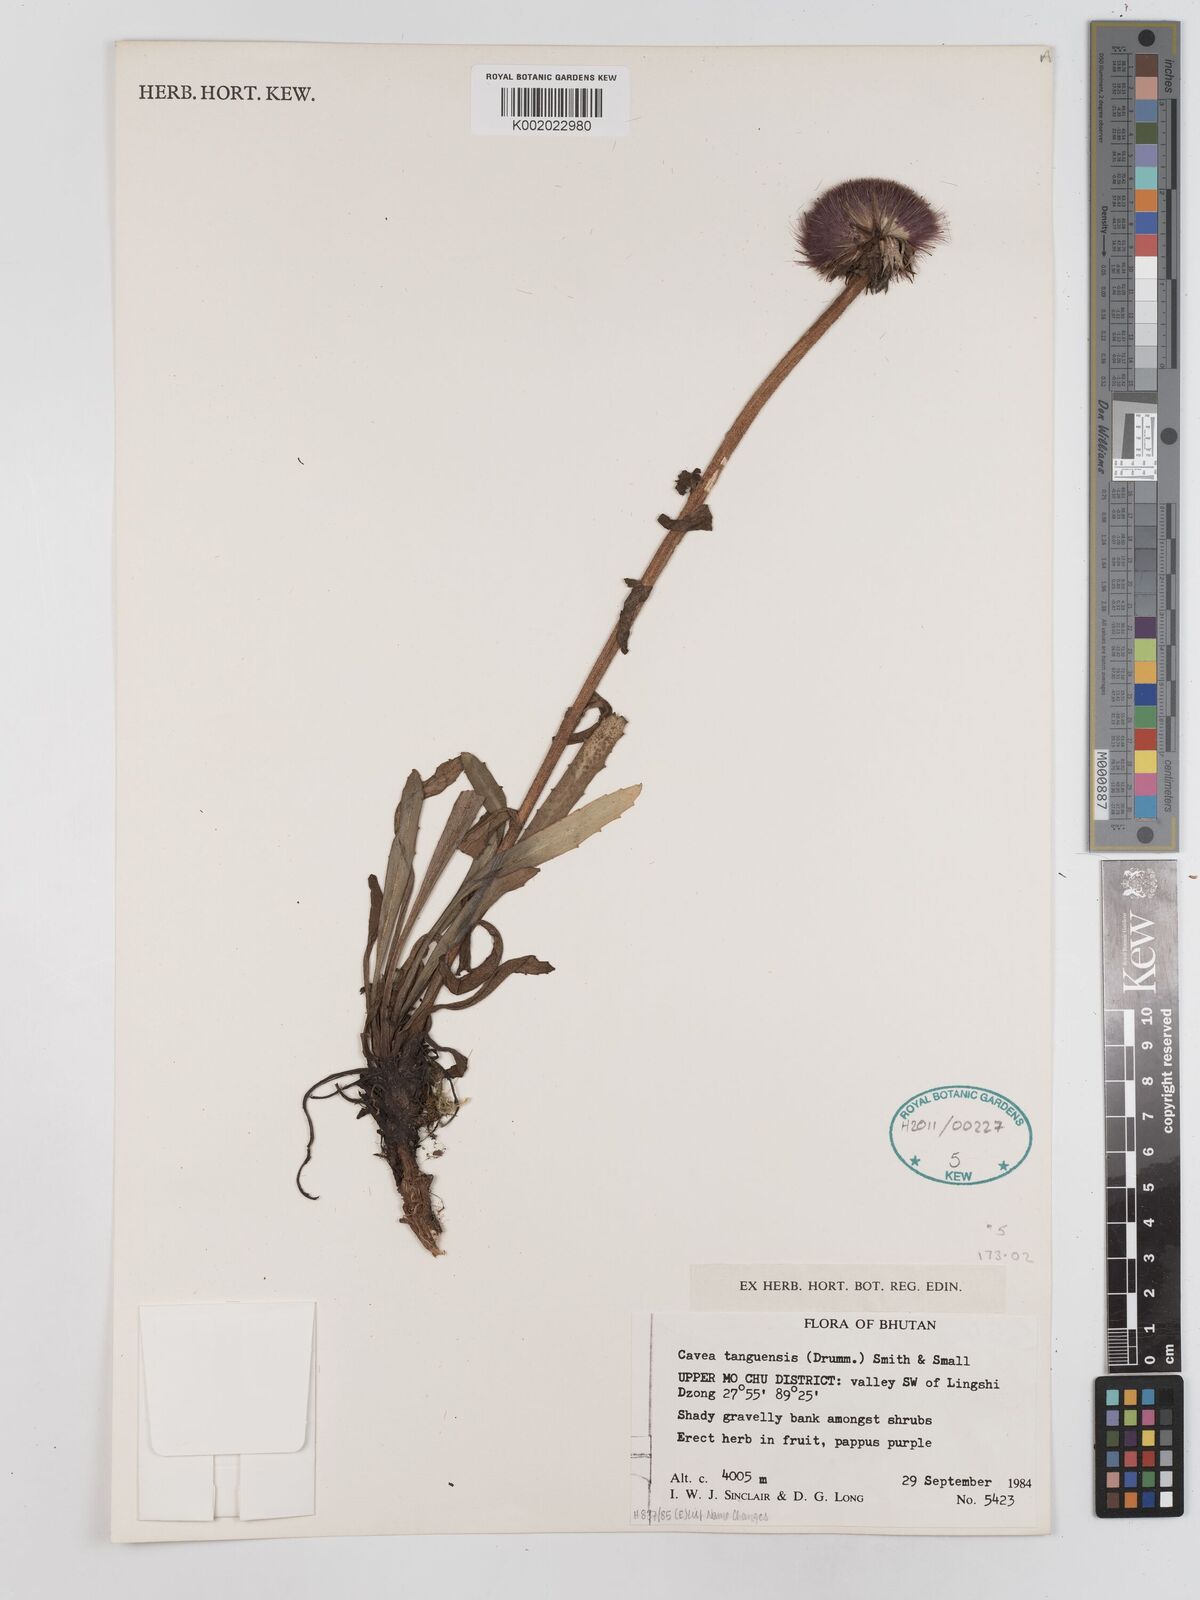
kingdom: Plantae
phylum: Tracheophyta
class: Magnoliopsida
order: Asterales
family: Asteraceae
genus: Cavea
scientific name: Cavea tanguensis
